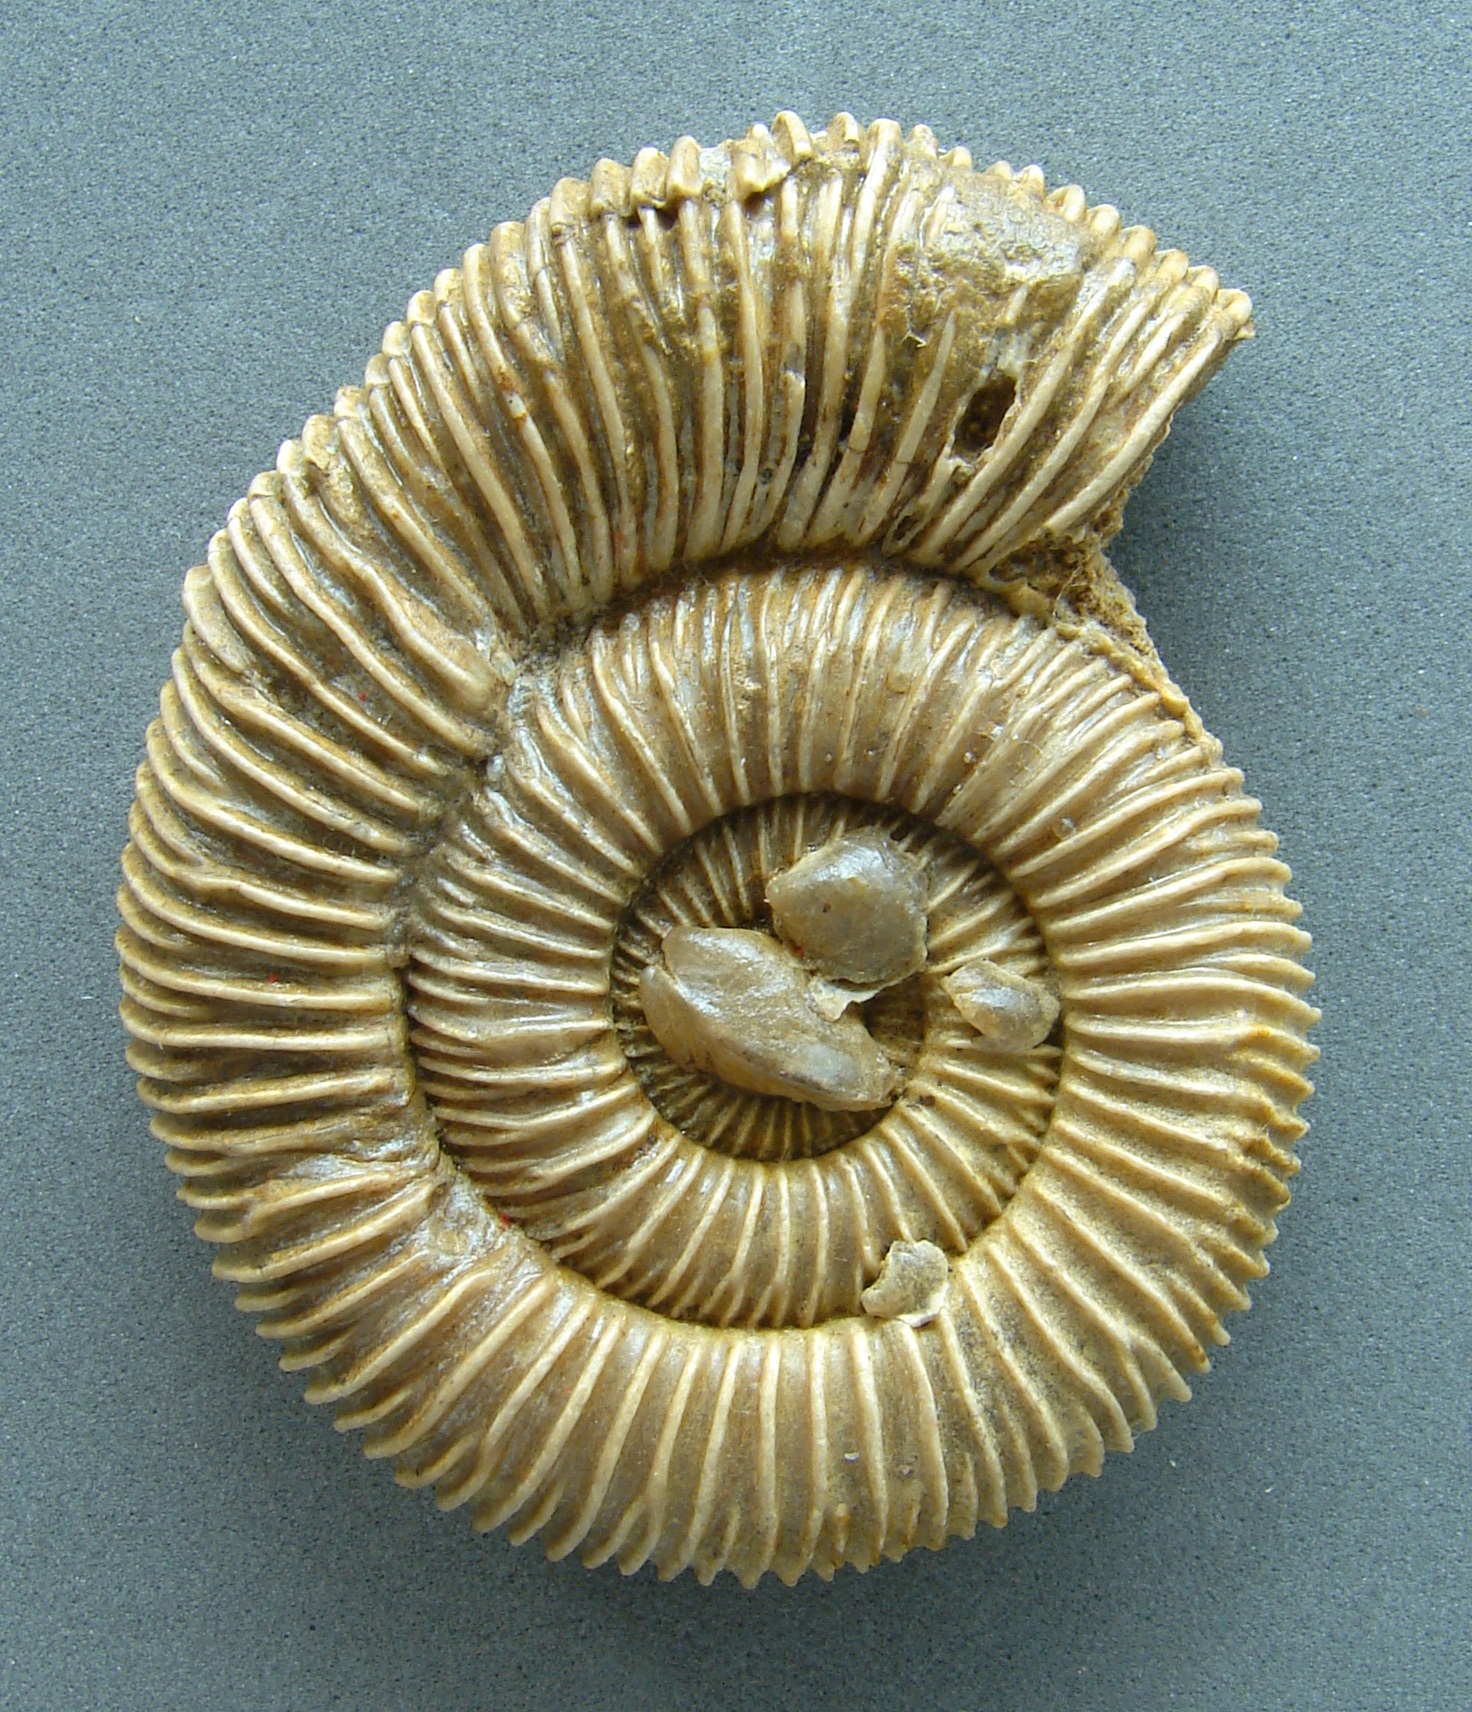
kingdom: Animalia
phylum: Mollusca
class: Cephalopoda
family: Dactylioceratidae
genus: Dactylioceras
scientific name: Dactylioceras
